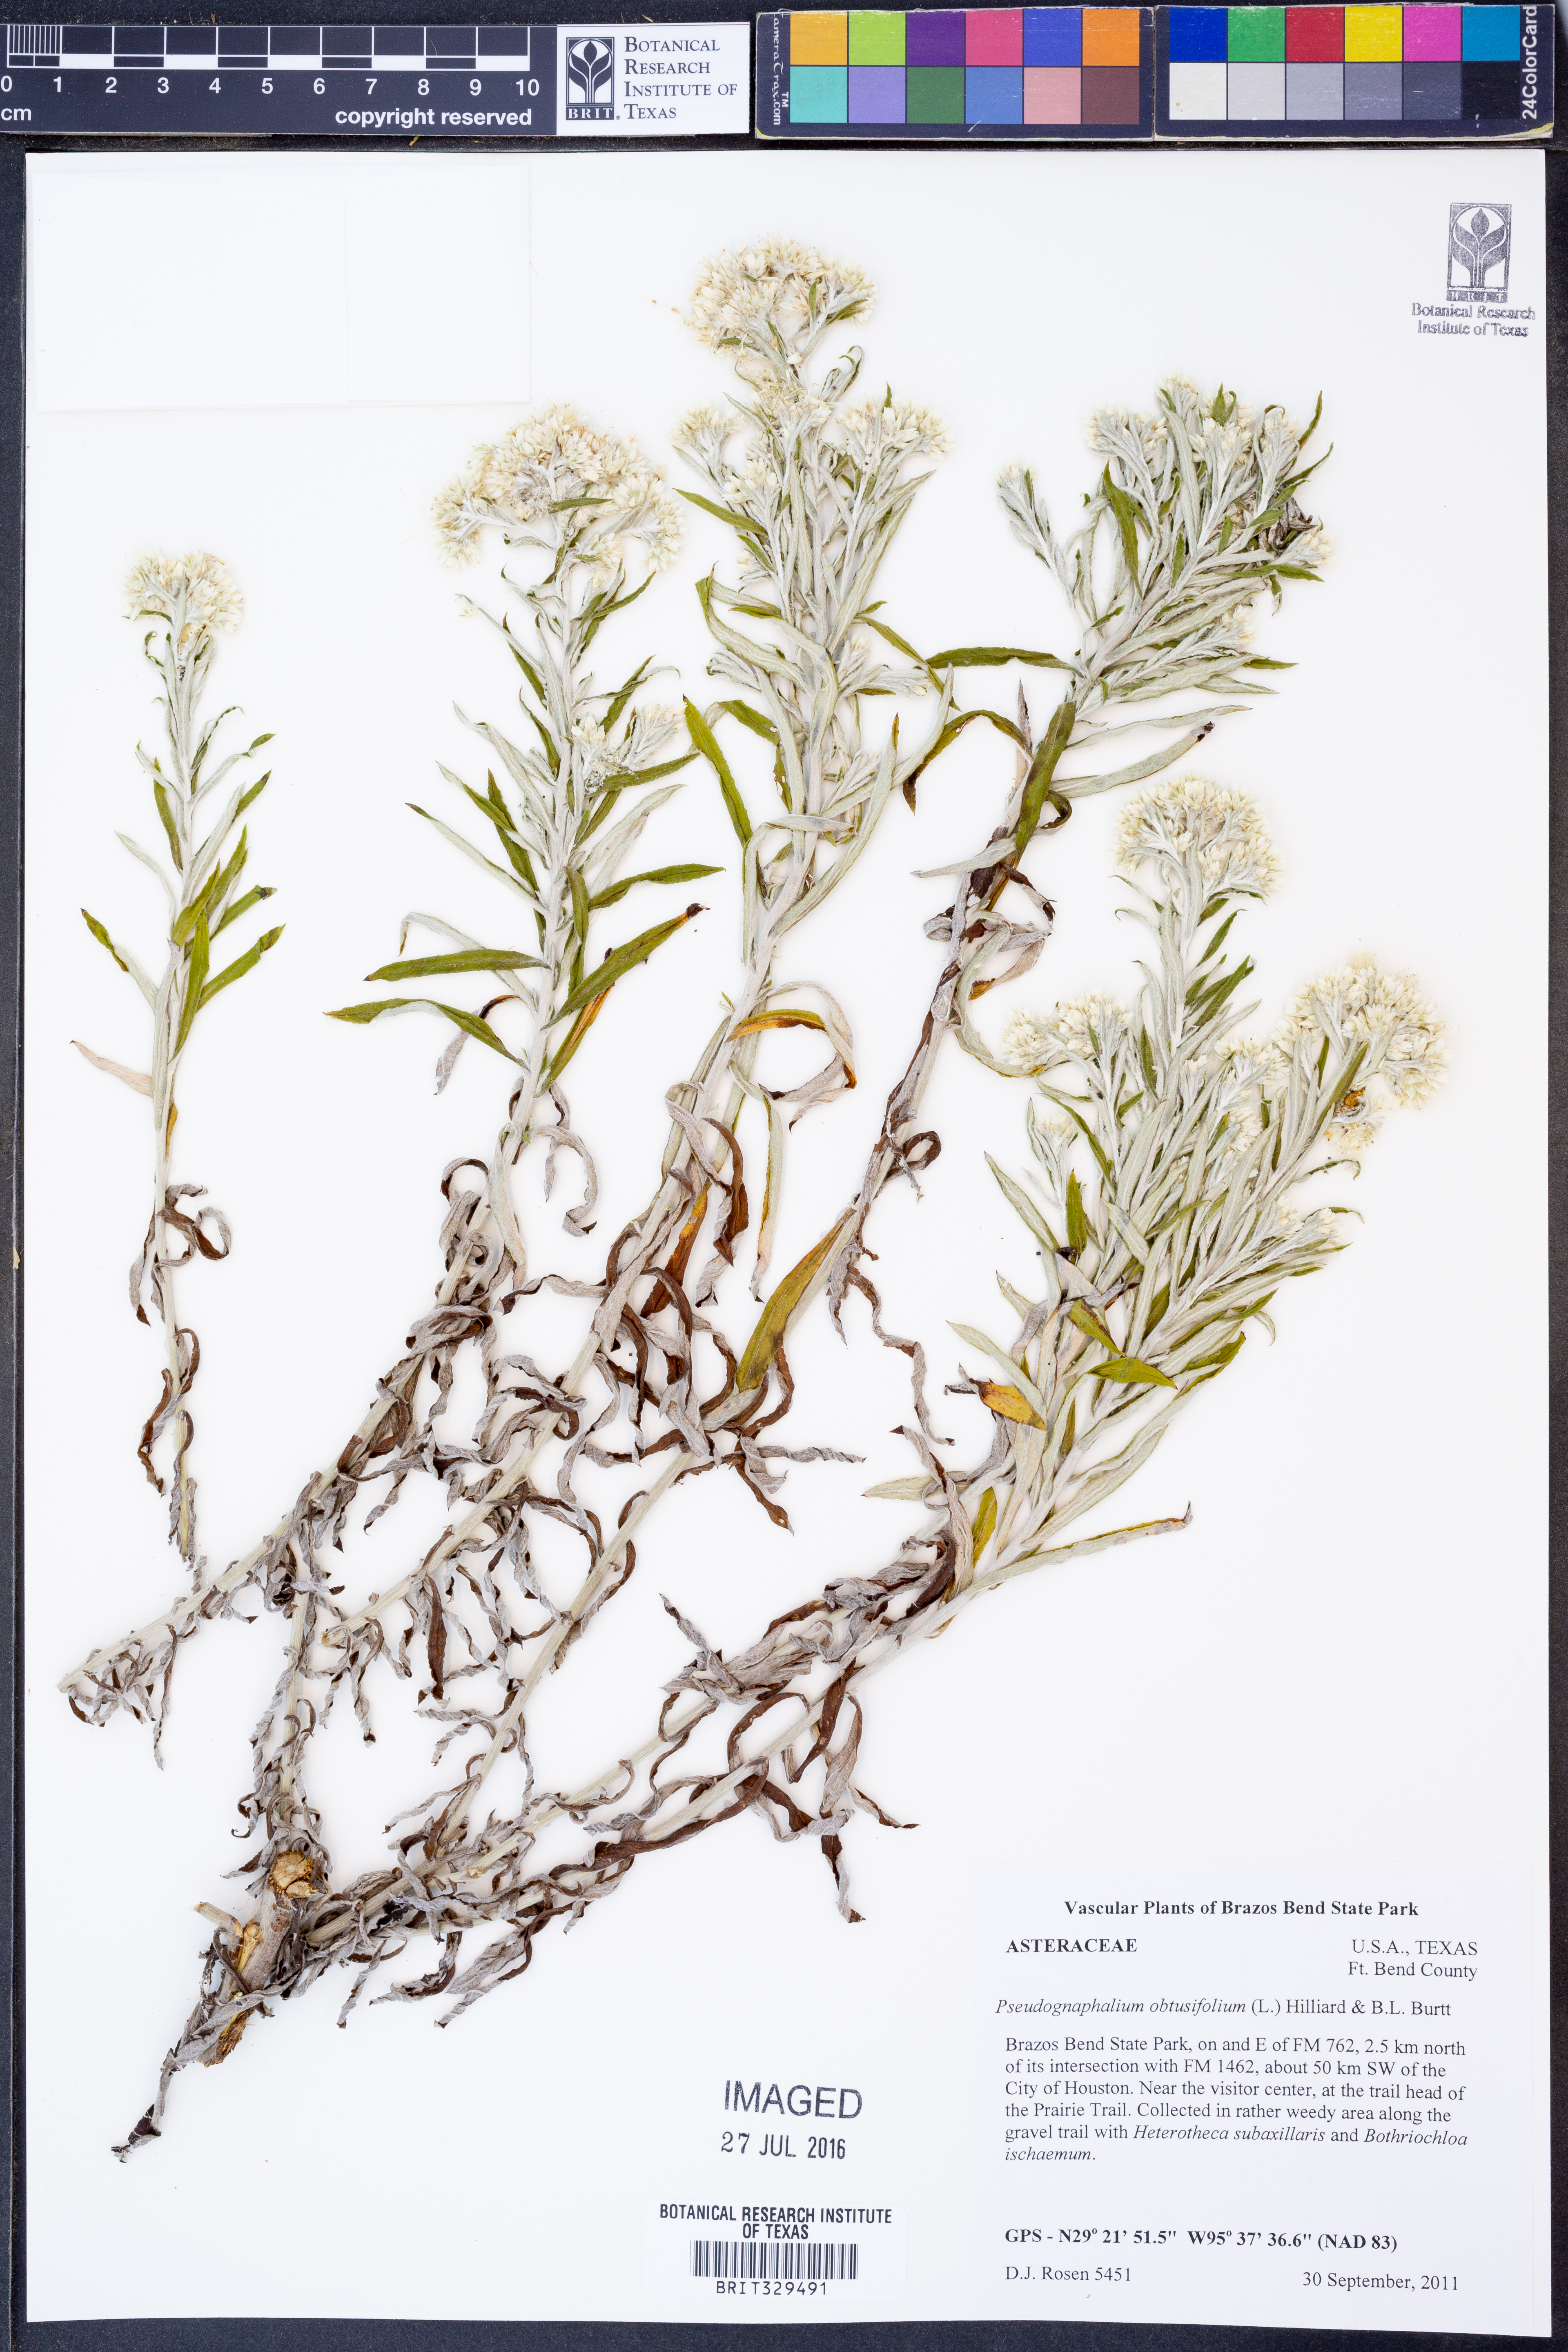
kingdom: Plantae
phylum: Tracheophyta
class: Magnoliopsida
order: Asterales
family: Asteraceae
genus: Pseudognaphalium
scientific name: Pseudognaphalium obtusifolium
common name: Eastern rabbit-tobacco
